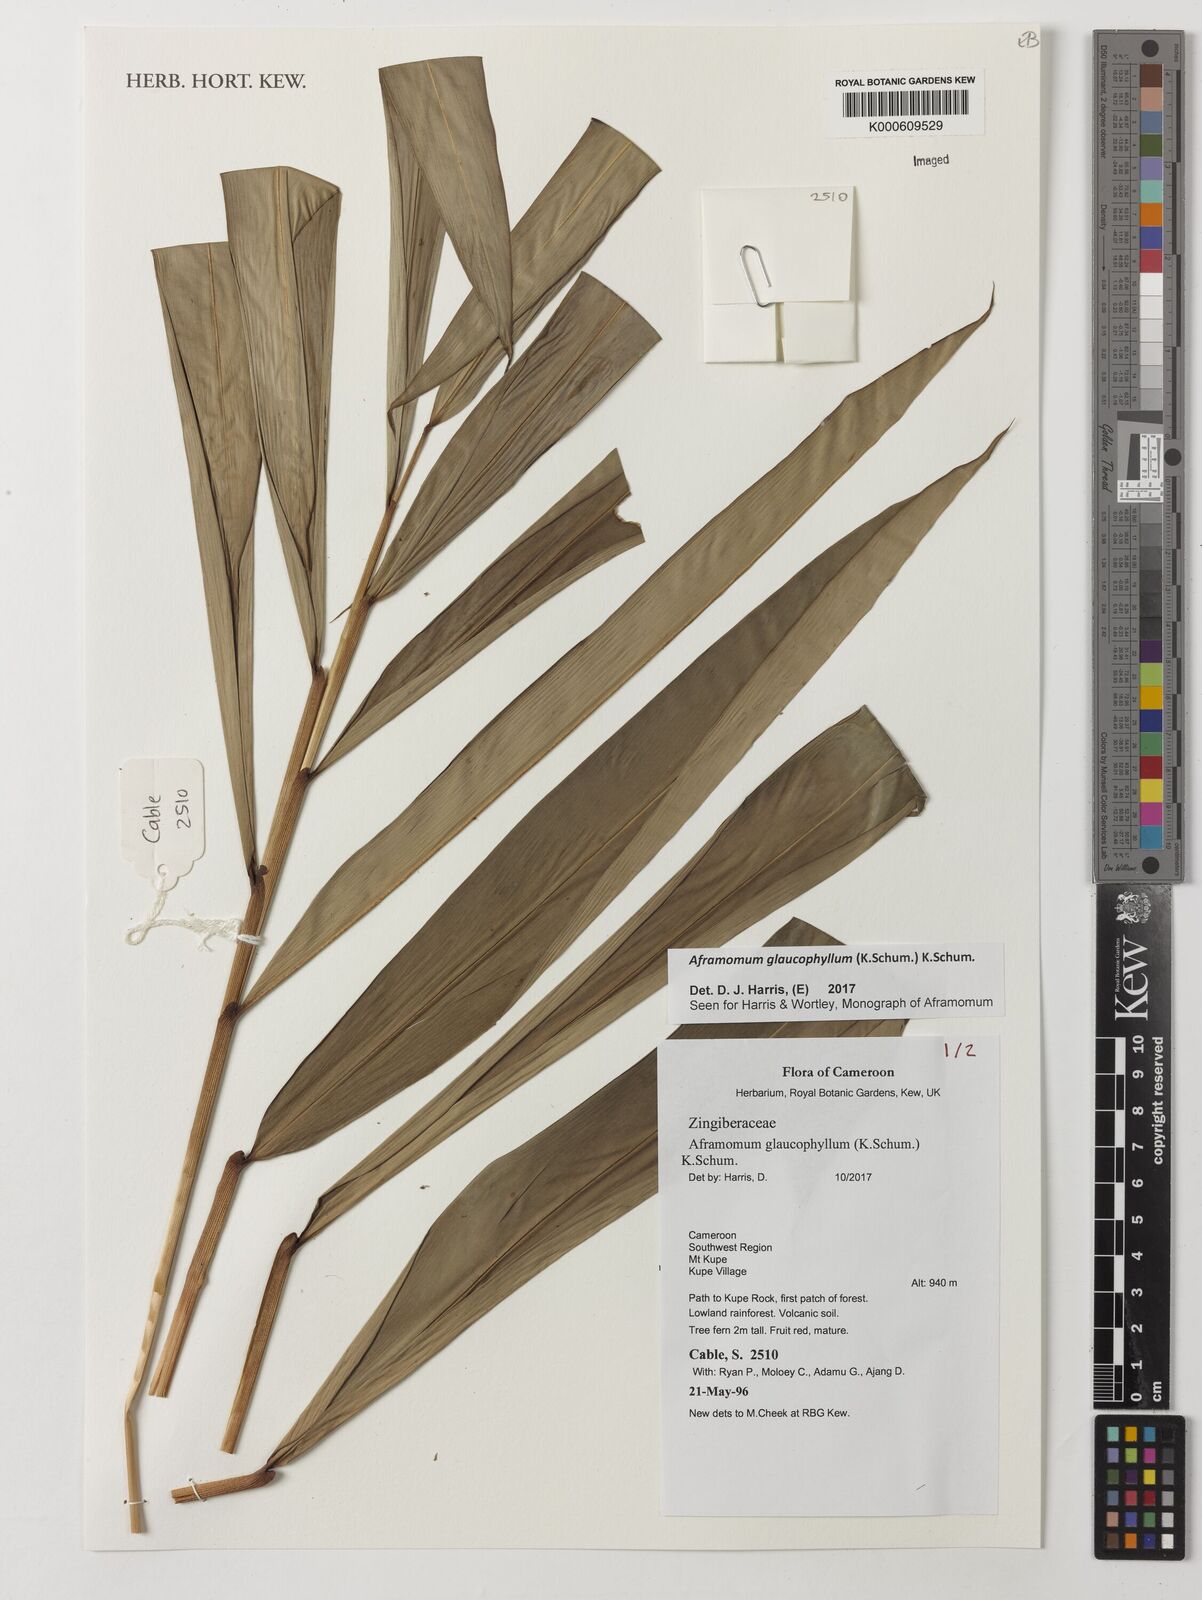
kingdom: Plantae
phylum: Tracheophyta
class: Liliopsida
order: Zingiberales
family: Zingiberaceae
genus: Aframomum
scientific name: Aframomum glaucophyllum
